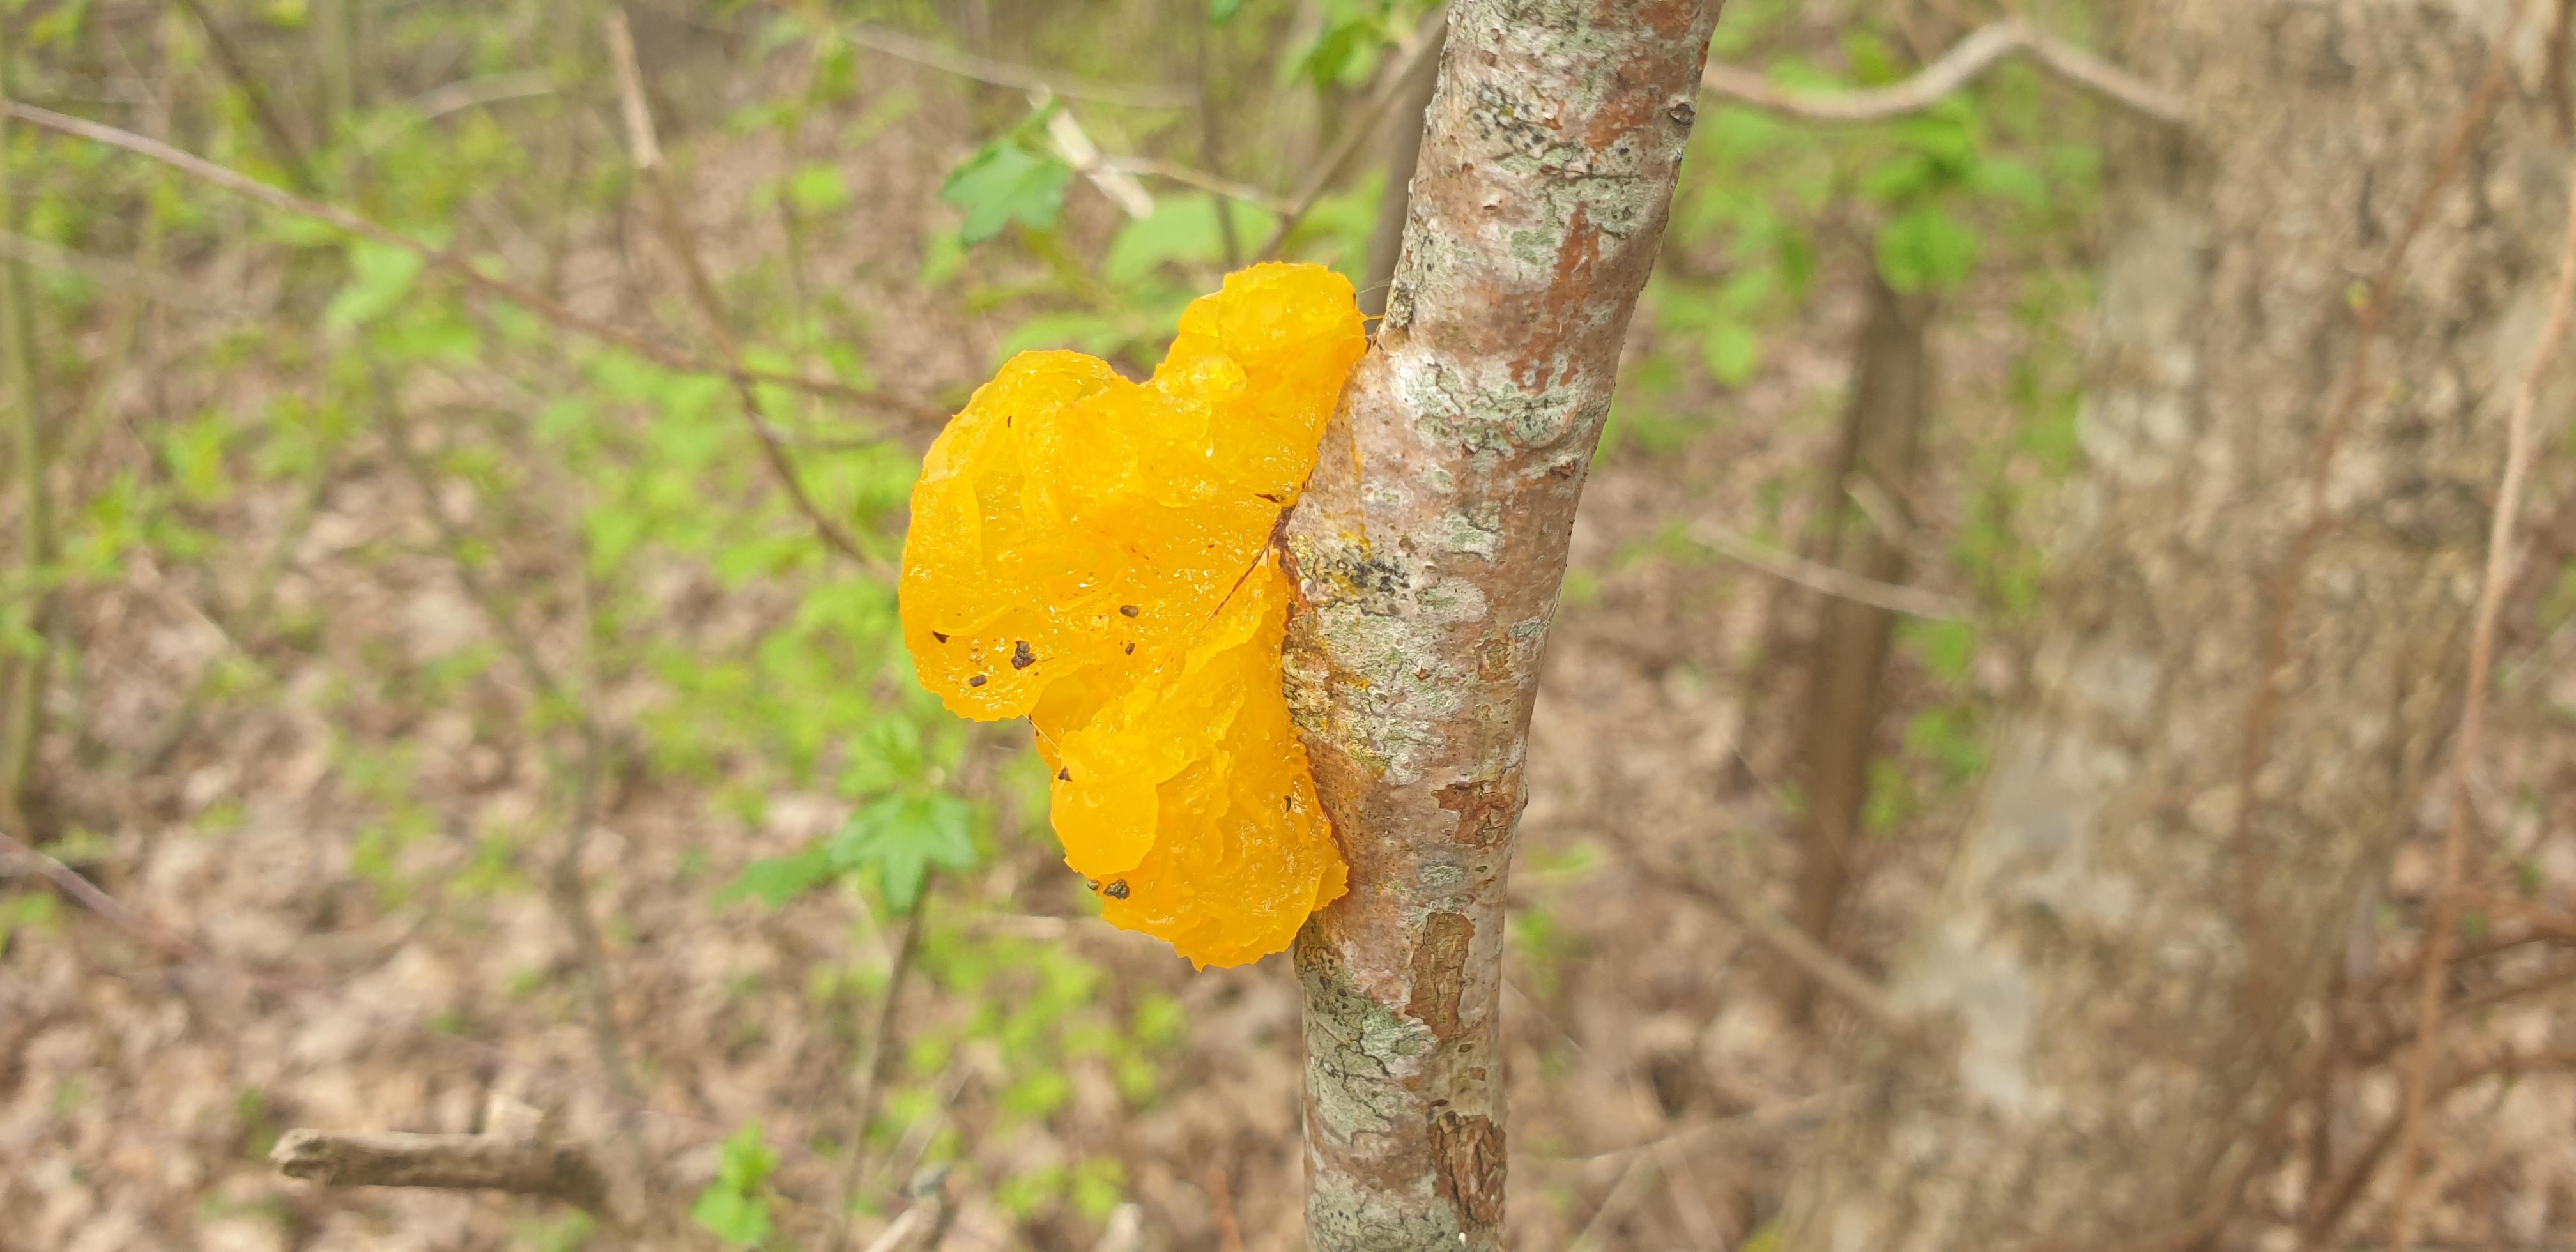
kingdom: Fungi
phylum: Basidiomycota
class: Tremellomycetes
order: Tremellales
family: Tremellaceae
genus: Tremella
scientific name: Tremella mesenterica
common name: gul bævresvamp
